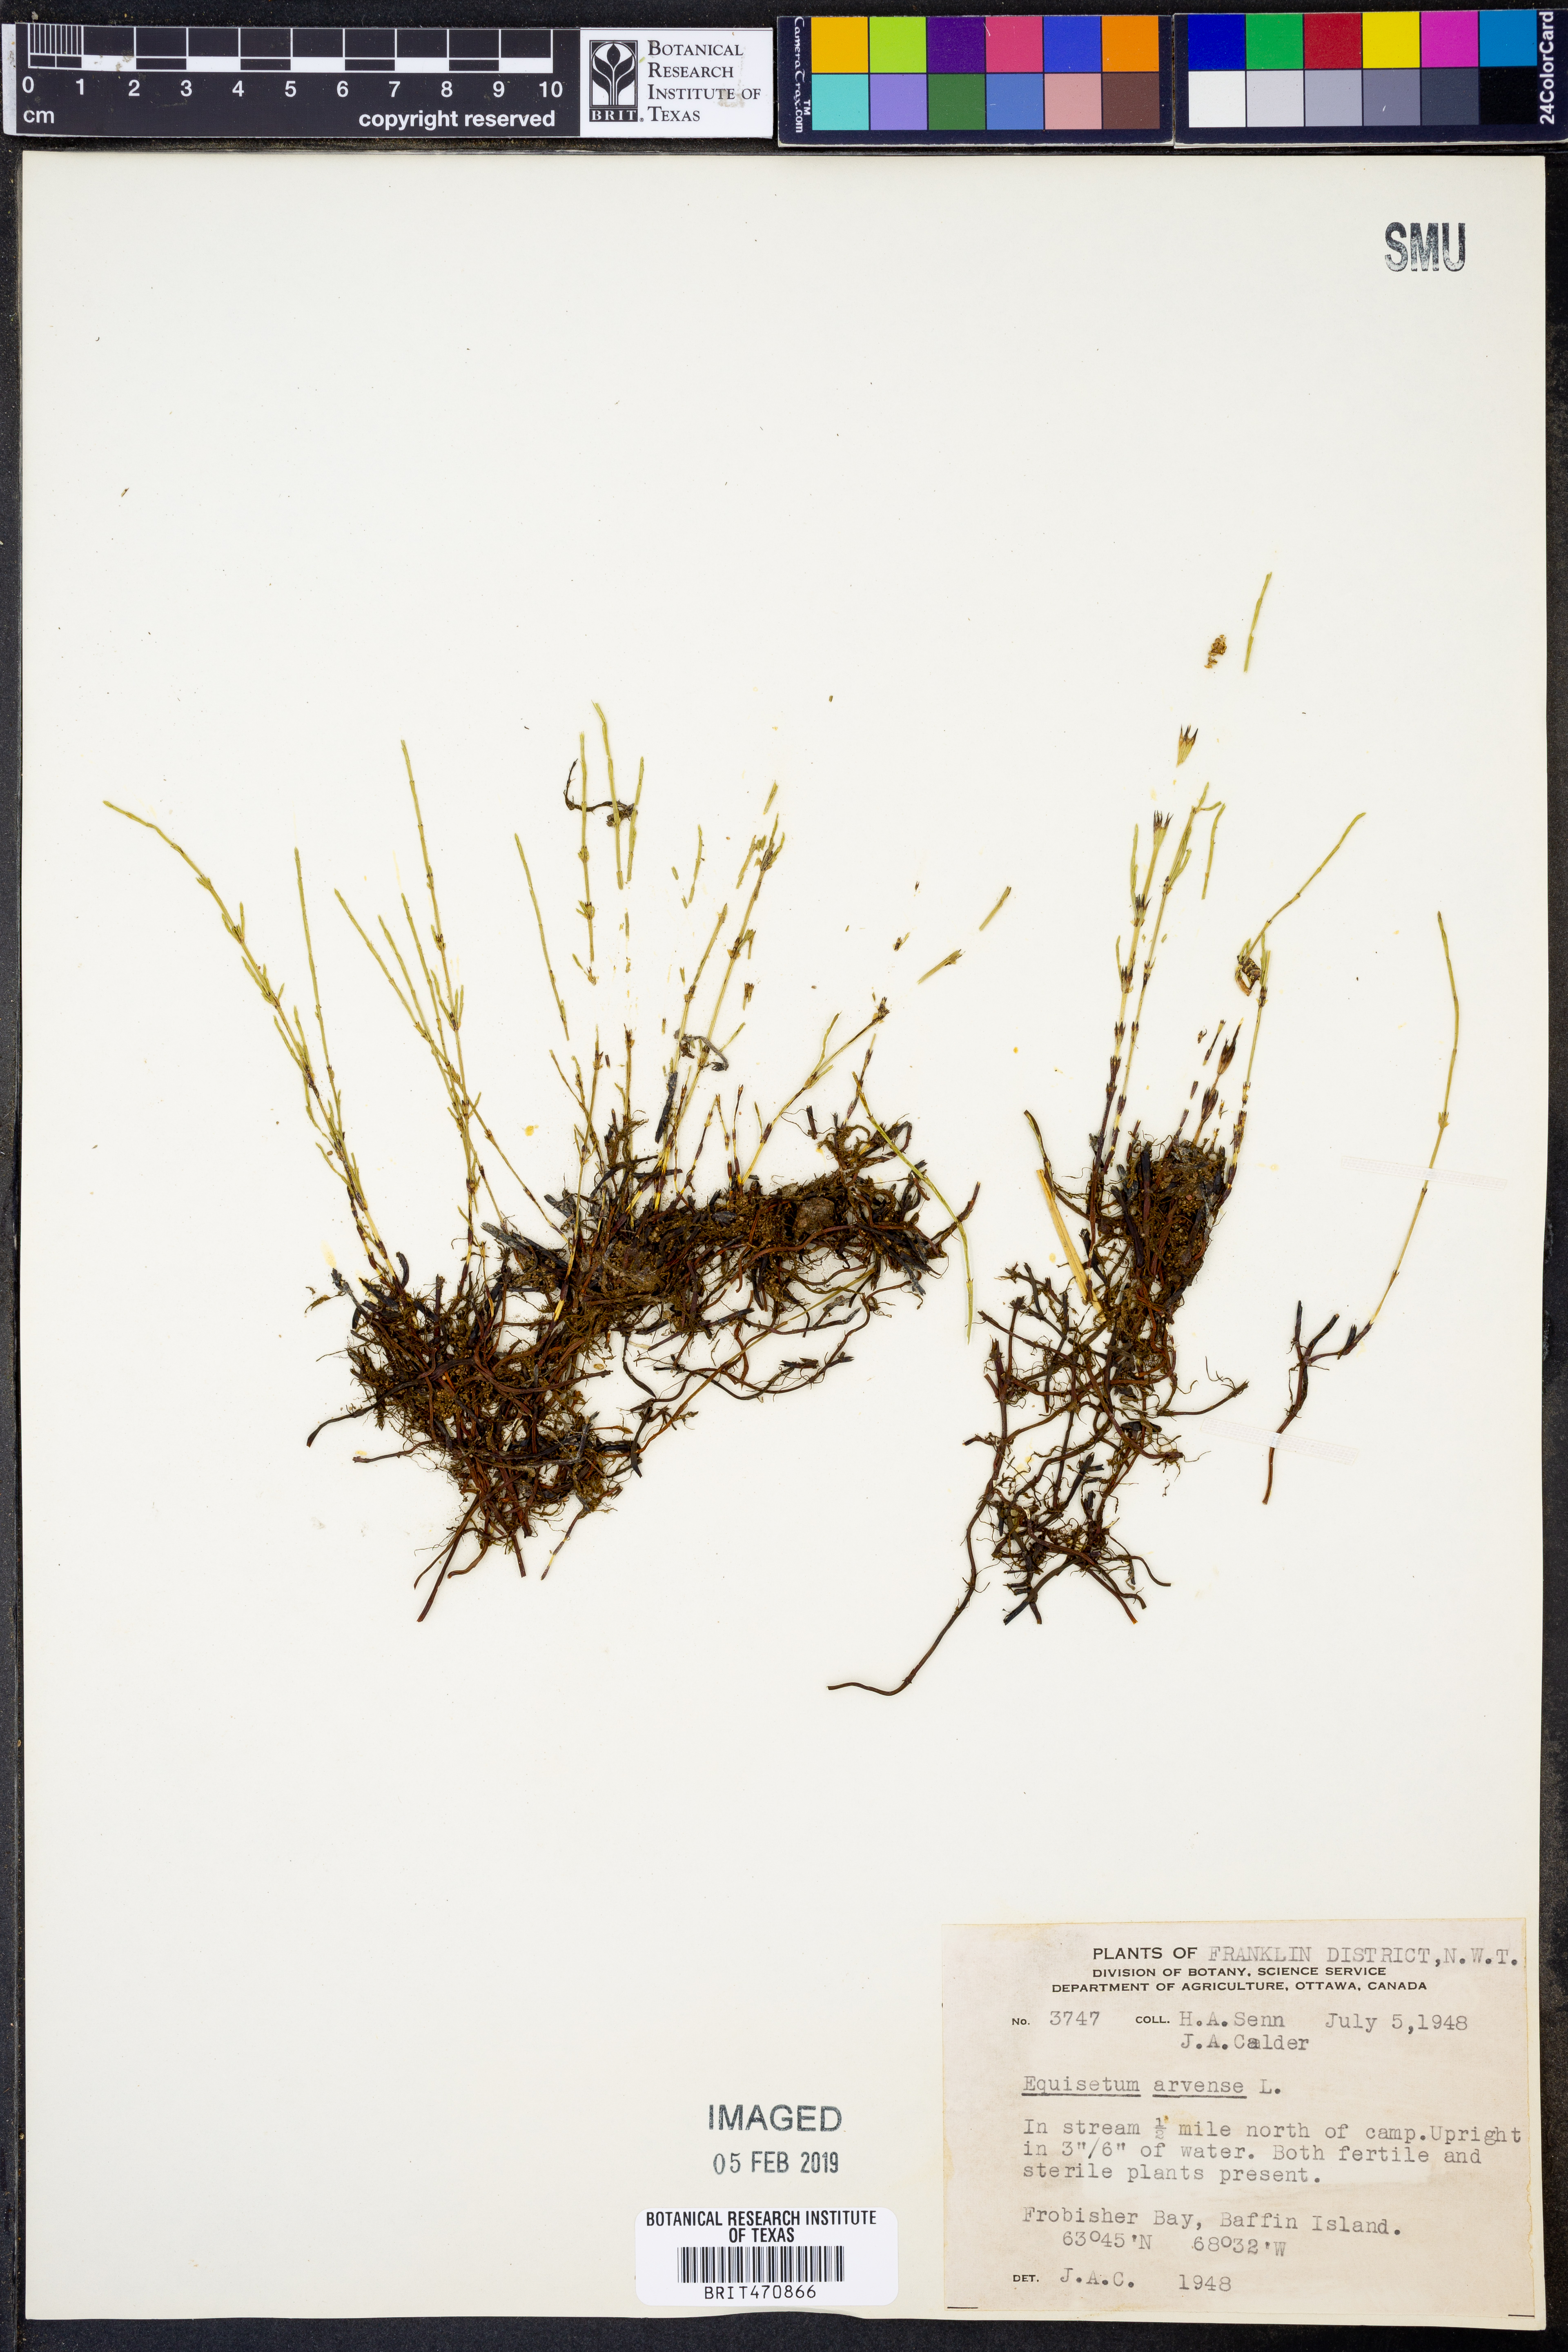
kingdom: Plantae
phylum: Tracheophyta
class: Polypodiopsida
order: Equisetales
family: Equisetaceae
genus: Equisetum
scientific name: Equisetum arvense
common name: Field horsetail
